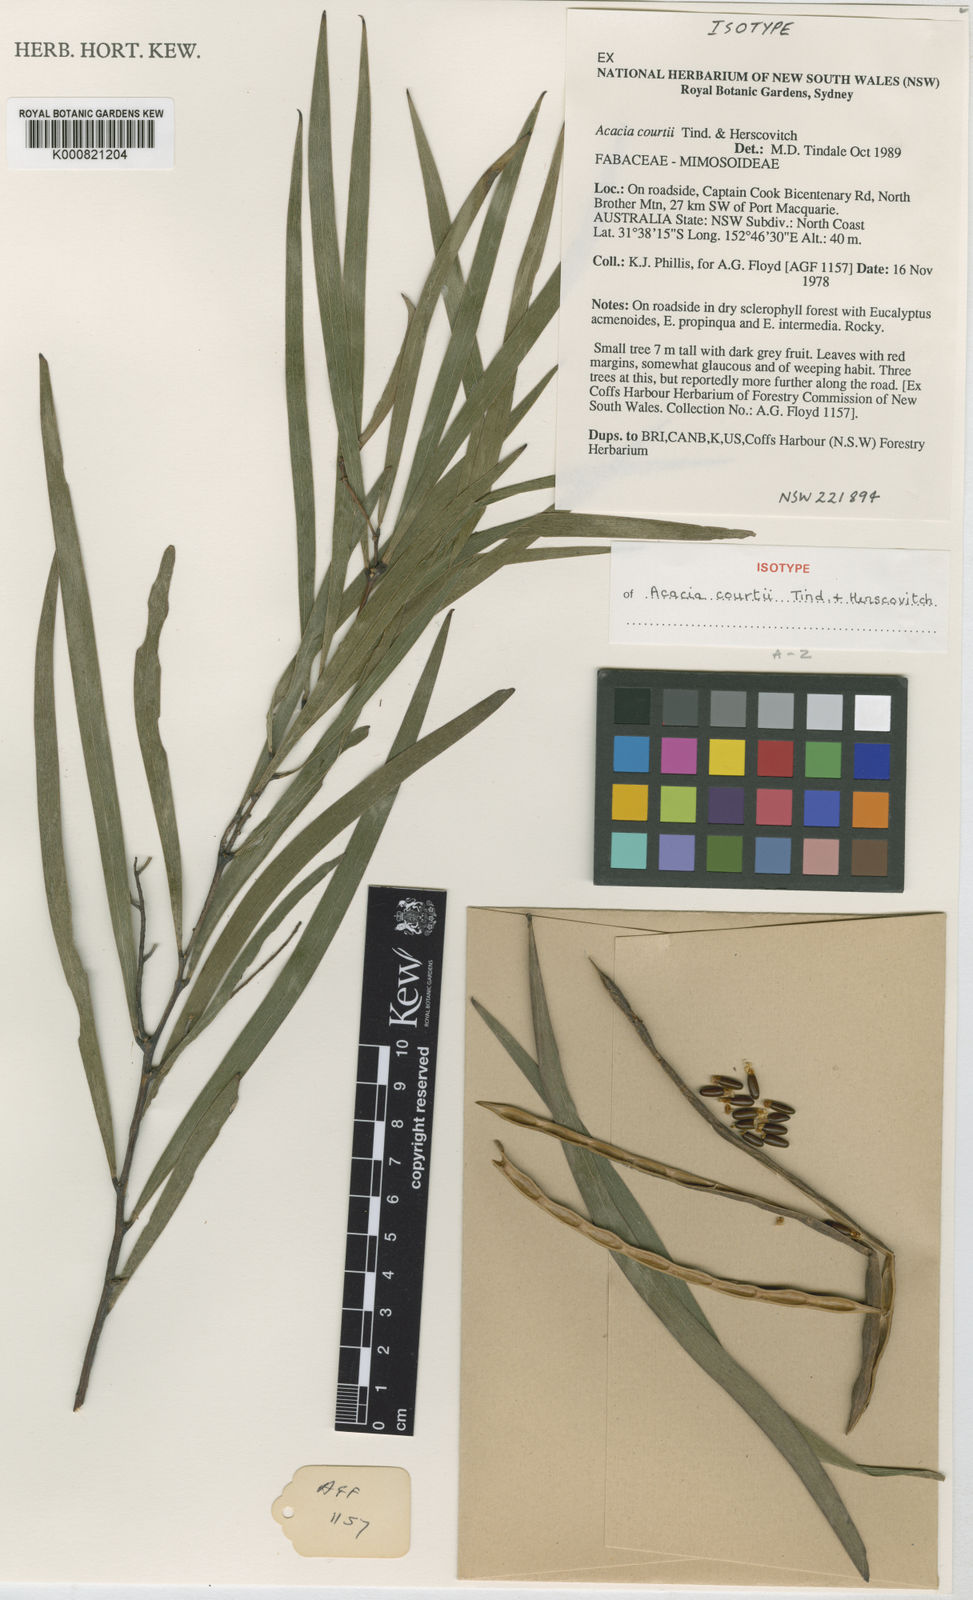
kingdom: Plantae
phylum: Tracheophyta
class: Magnoliopsida
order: Fabales
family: Fabaceae
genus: Acacia
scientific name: Acacia courtii
